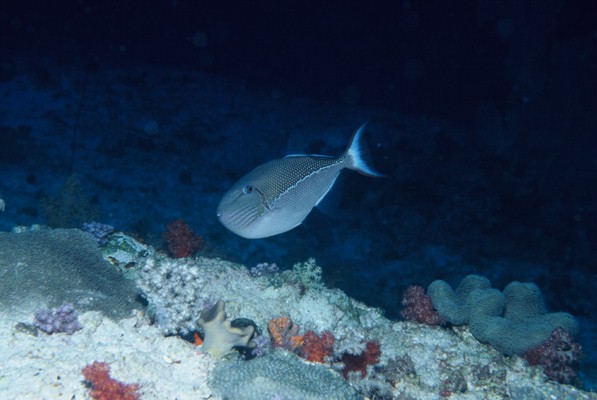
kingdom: Animalia
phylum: Chordata
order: Tetraodontiformes
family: Balistidae
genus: Xanthichthys
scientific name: Xanthichthys caeruleolineatus
